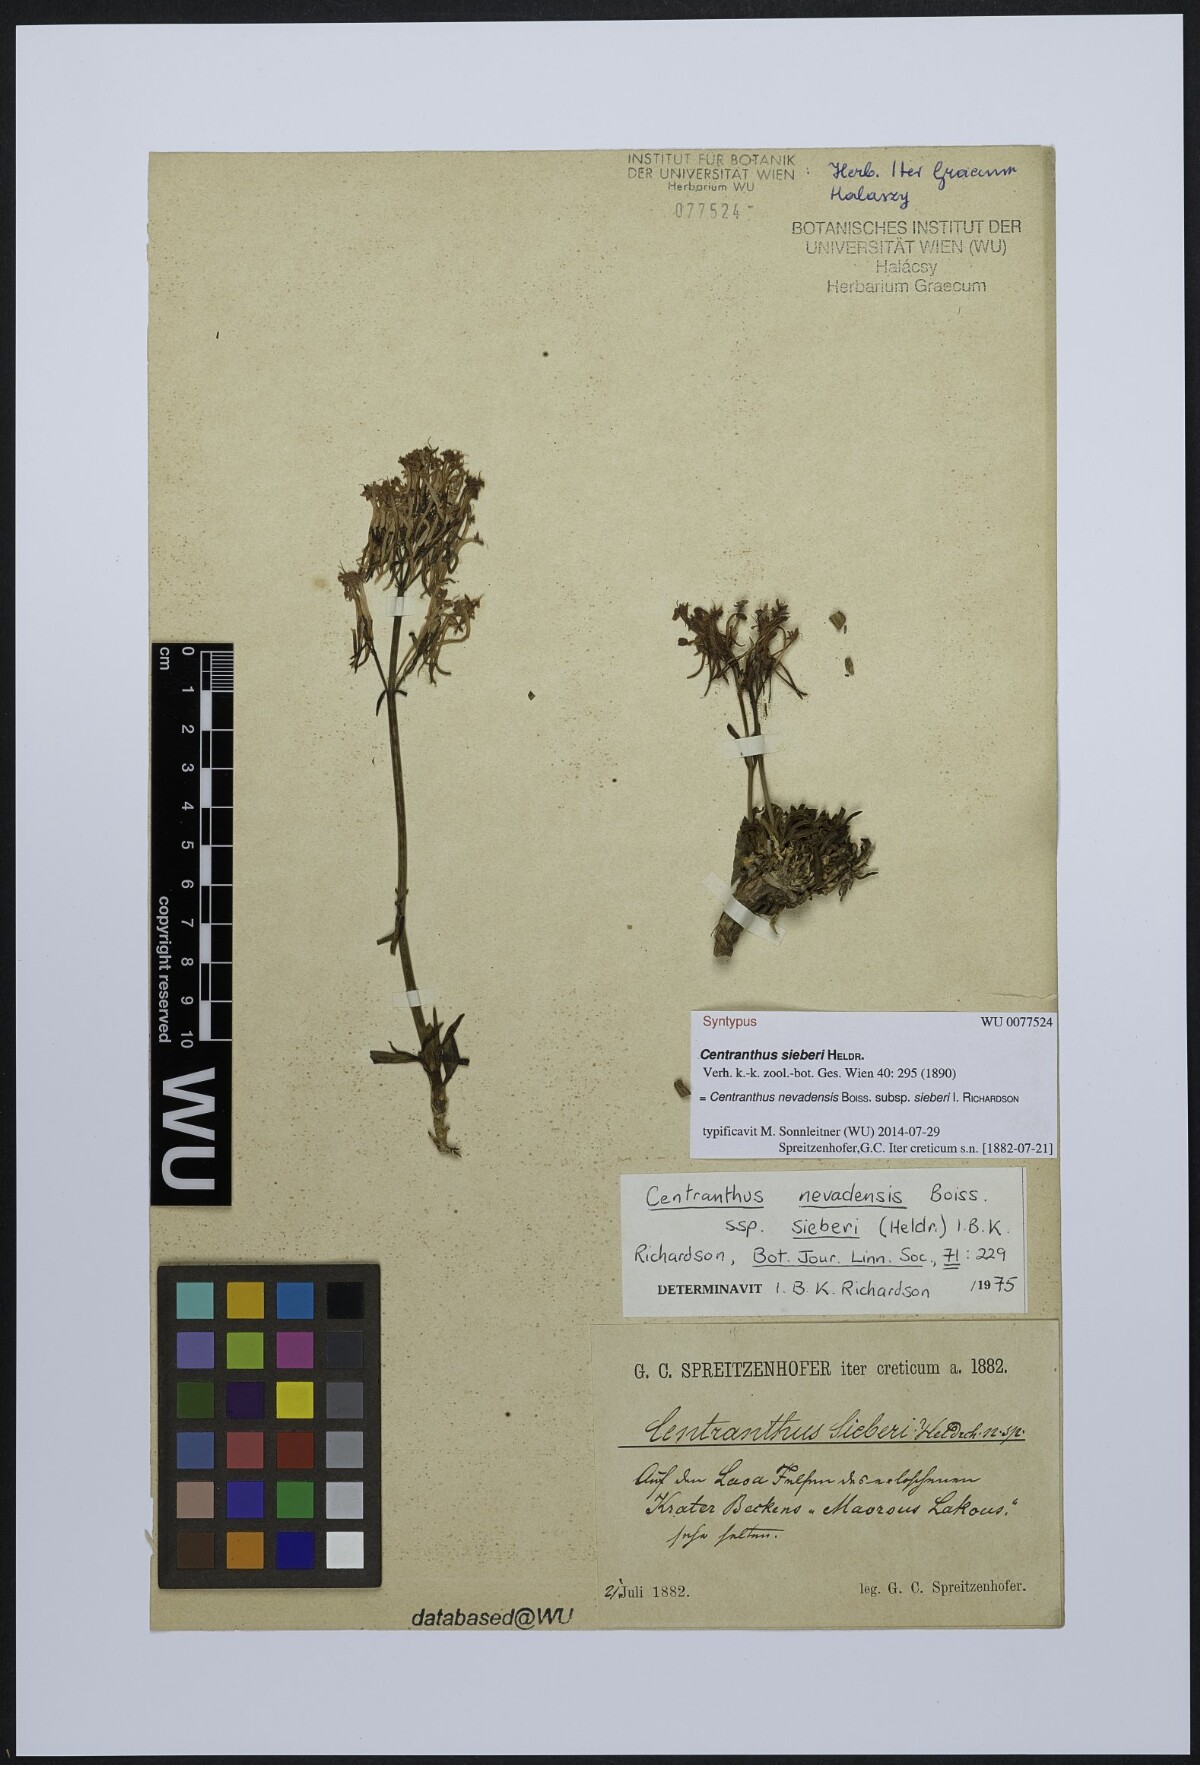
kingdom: Plantae
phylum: Tracheophyta
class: Magnoliopsida
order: Dipsacales
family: Caprifoliaceae
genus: Centranthus
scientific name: Centranthus sieberi
